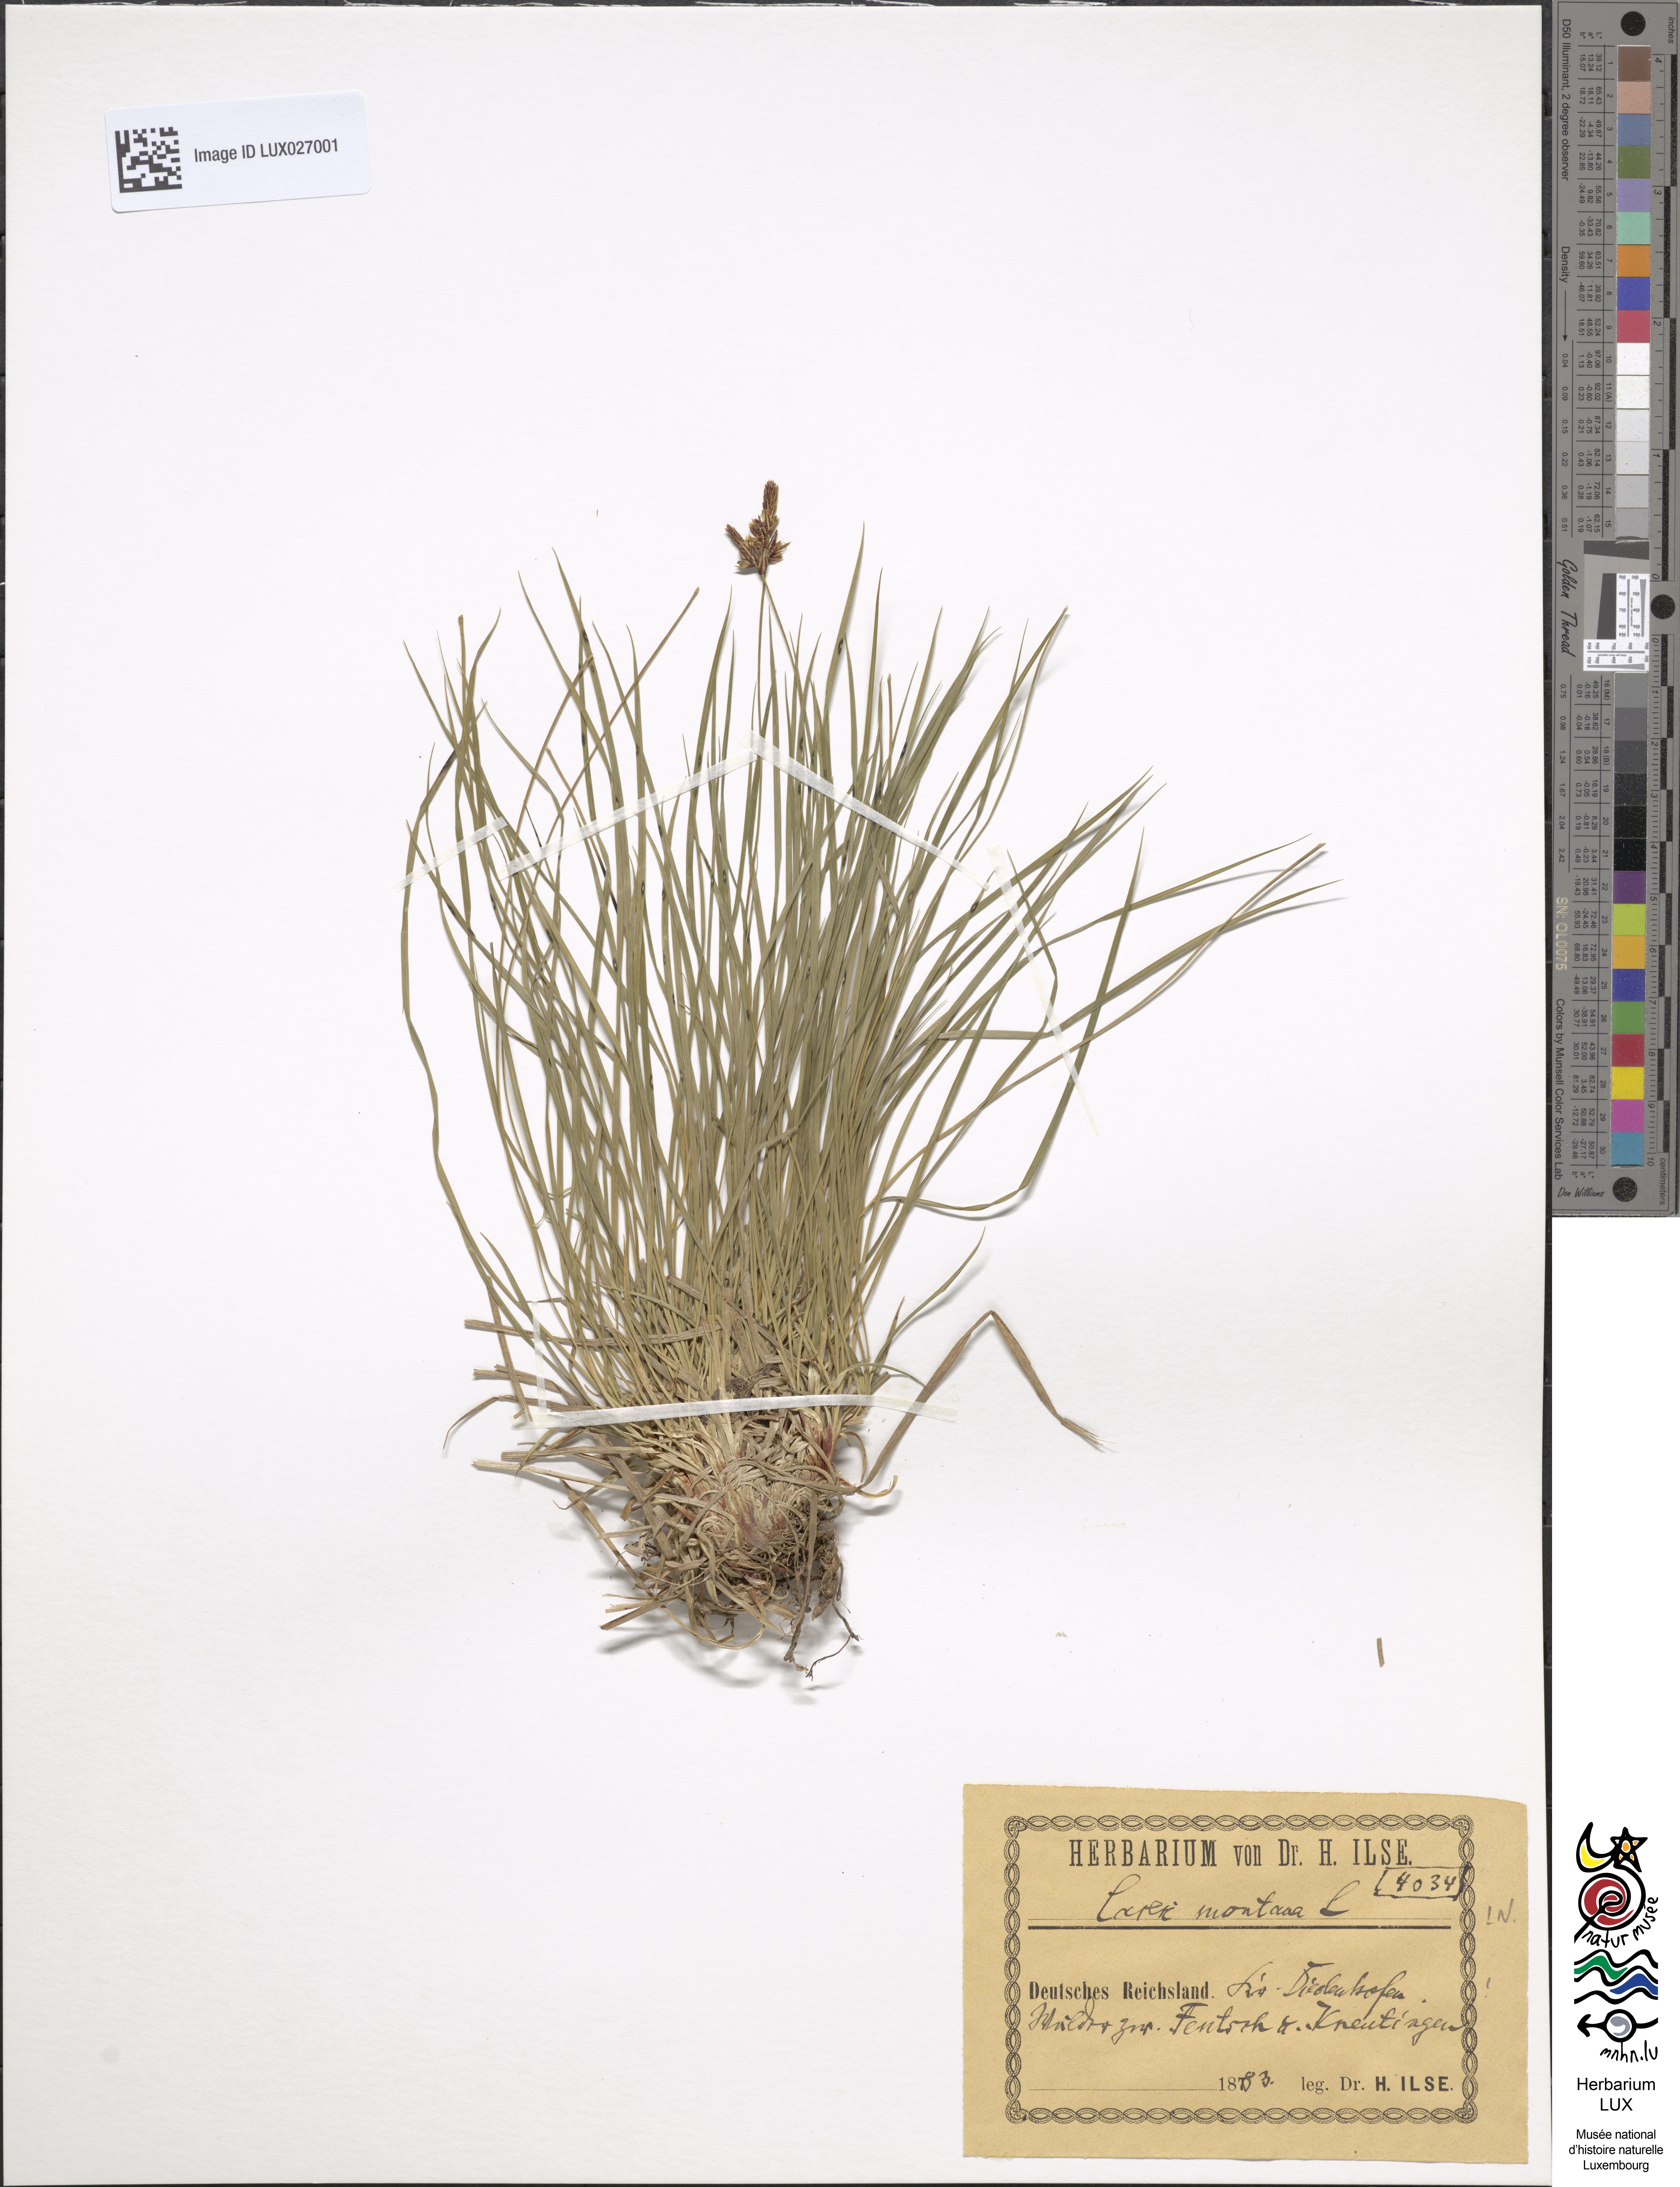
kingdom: Plantae
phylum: Tracheophyta
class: Liliopsida
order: Poales
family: Cyperaceae
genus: Carex
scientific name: Carex montana
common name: Soft-leaved sedge
